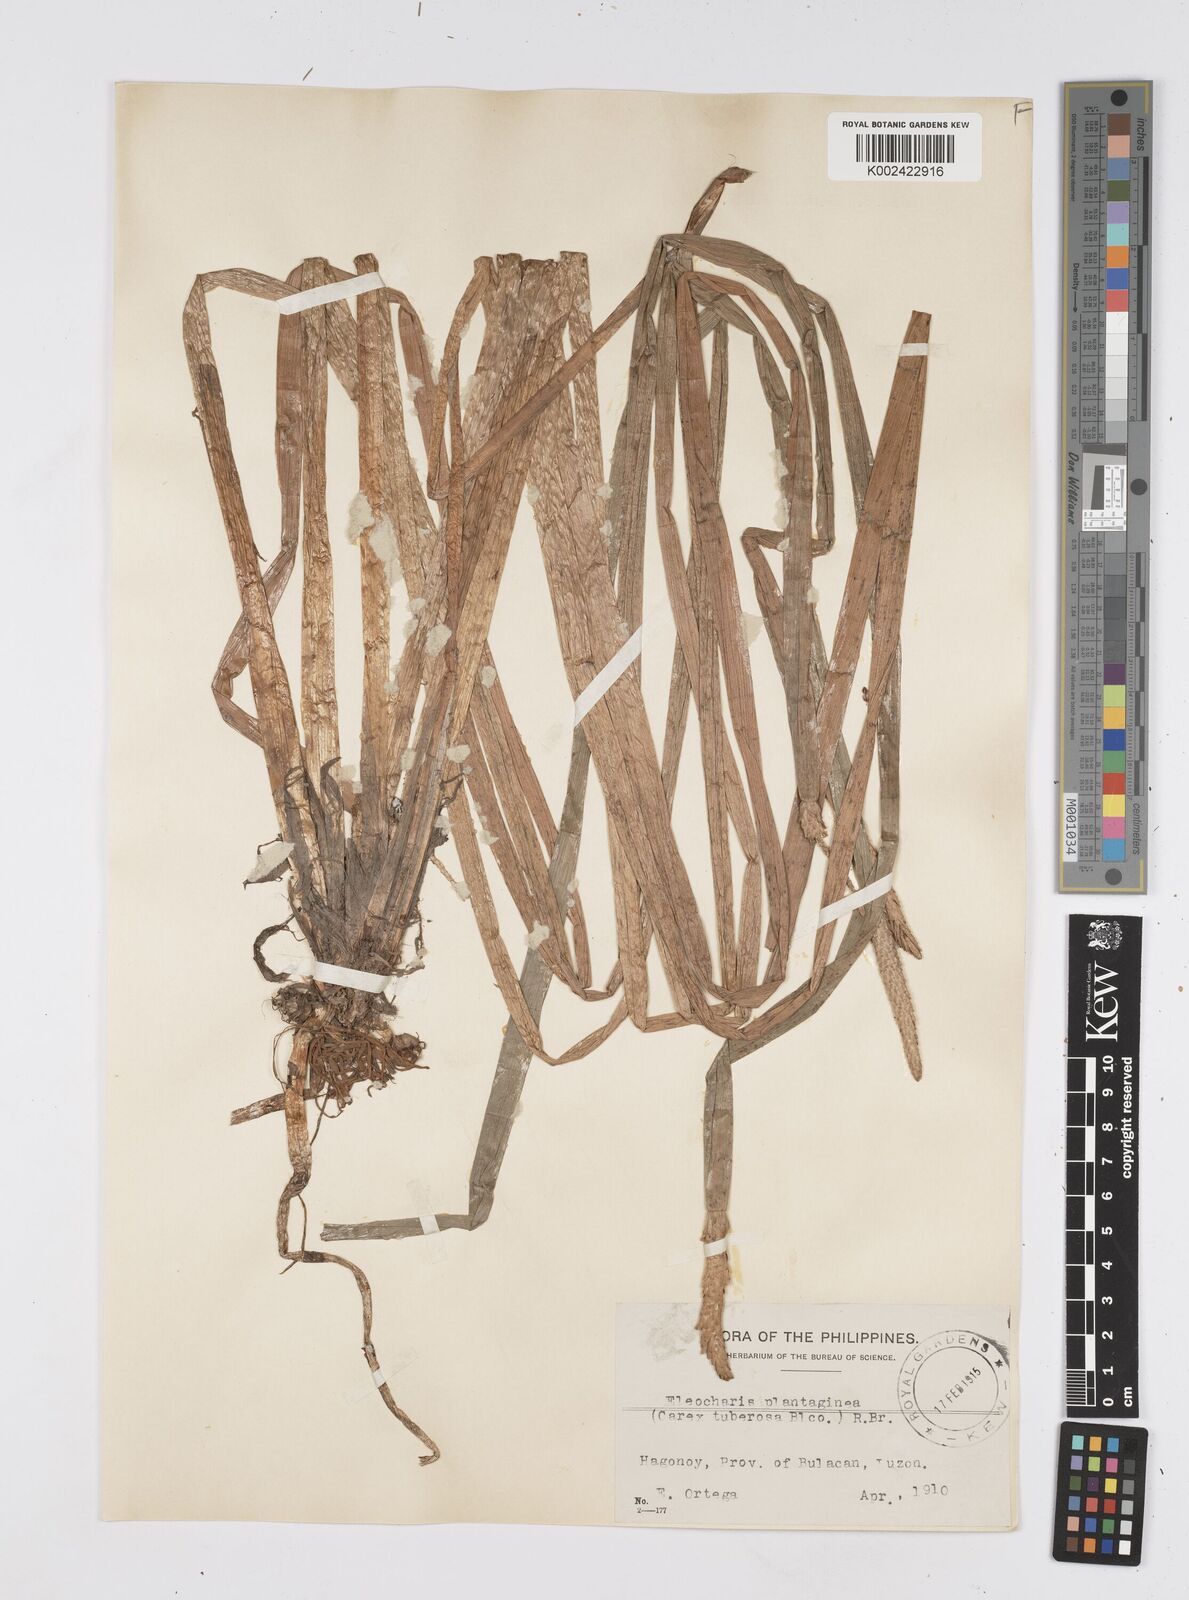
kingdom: Plantae
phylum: Tracheophyta
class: Liliopsida
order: Poales
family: Cyperaceae
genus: Eleocharis
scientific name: Eleocharis dulcis
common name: Chinese water chestnut
